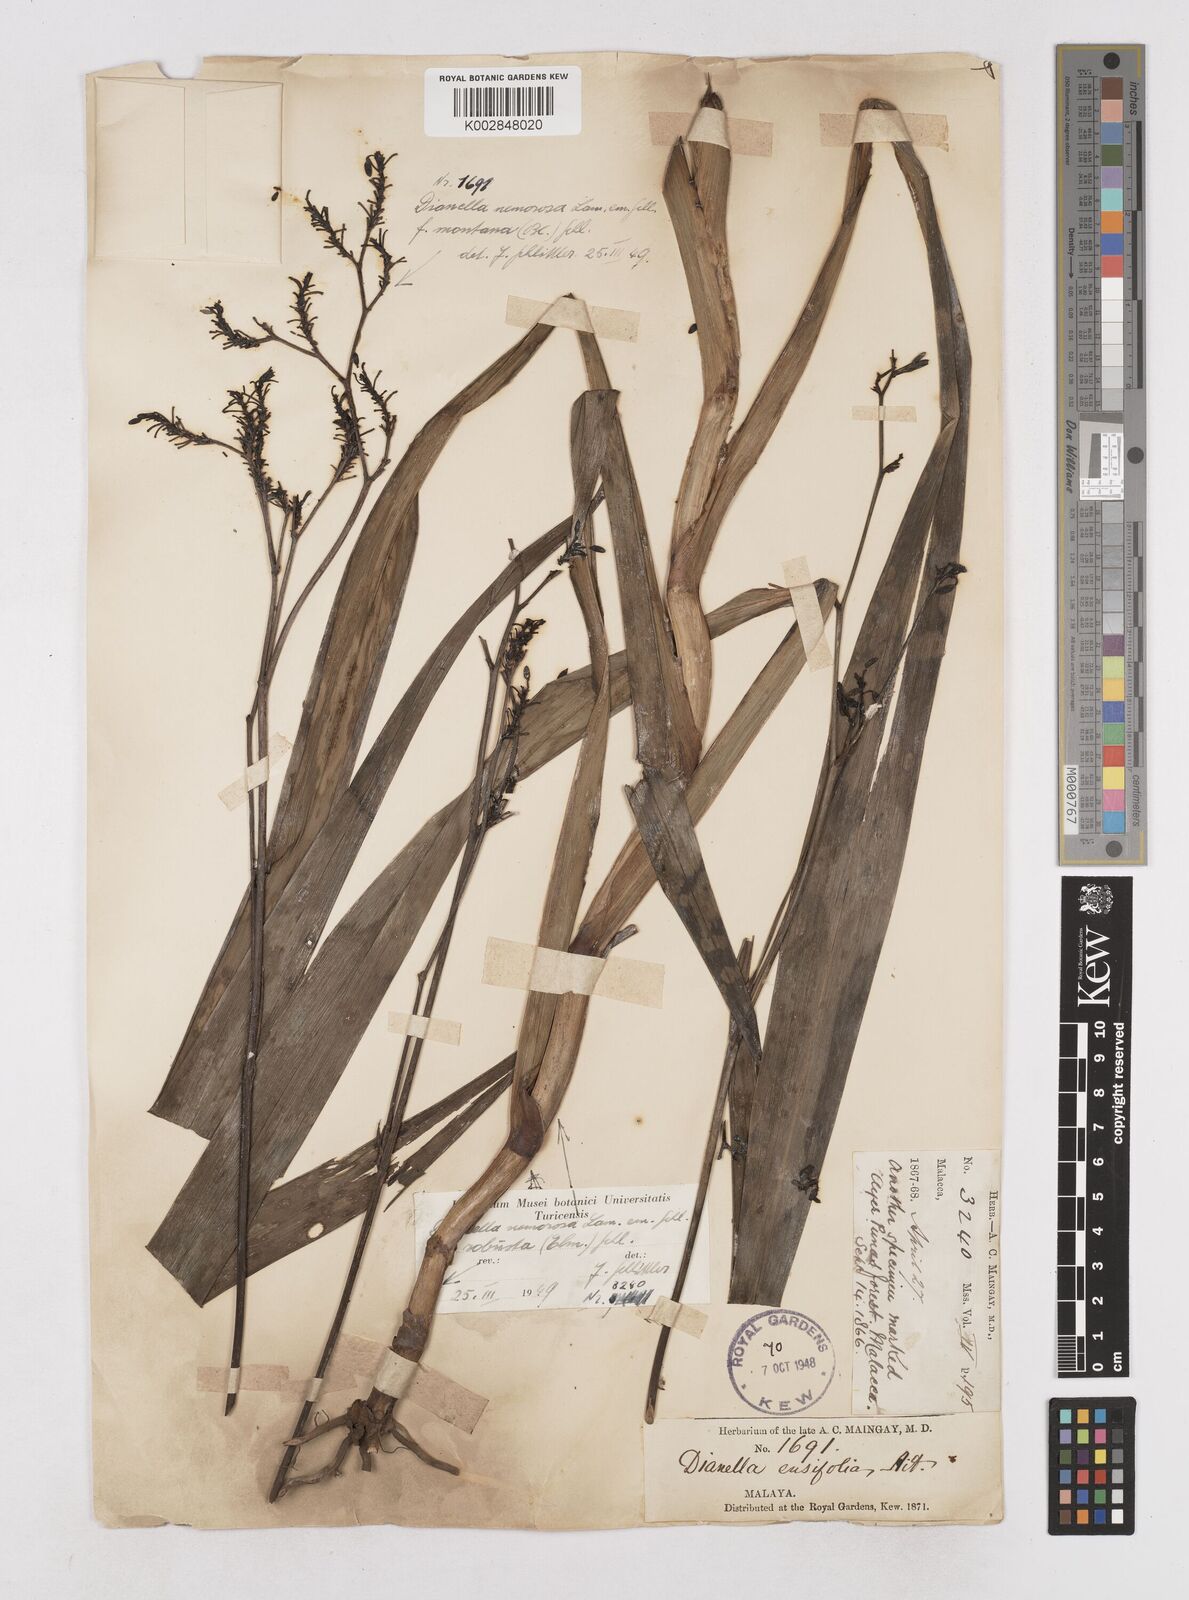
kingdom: Plantae
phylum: Tracheophyta
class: Liliopsida
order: Asparagales
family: Asphodelaceae
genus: Dianella
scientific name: Dianella ensifolia
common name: New zealand lilyplant
